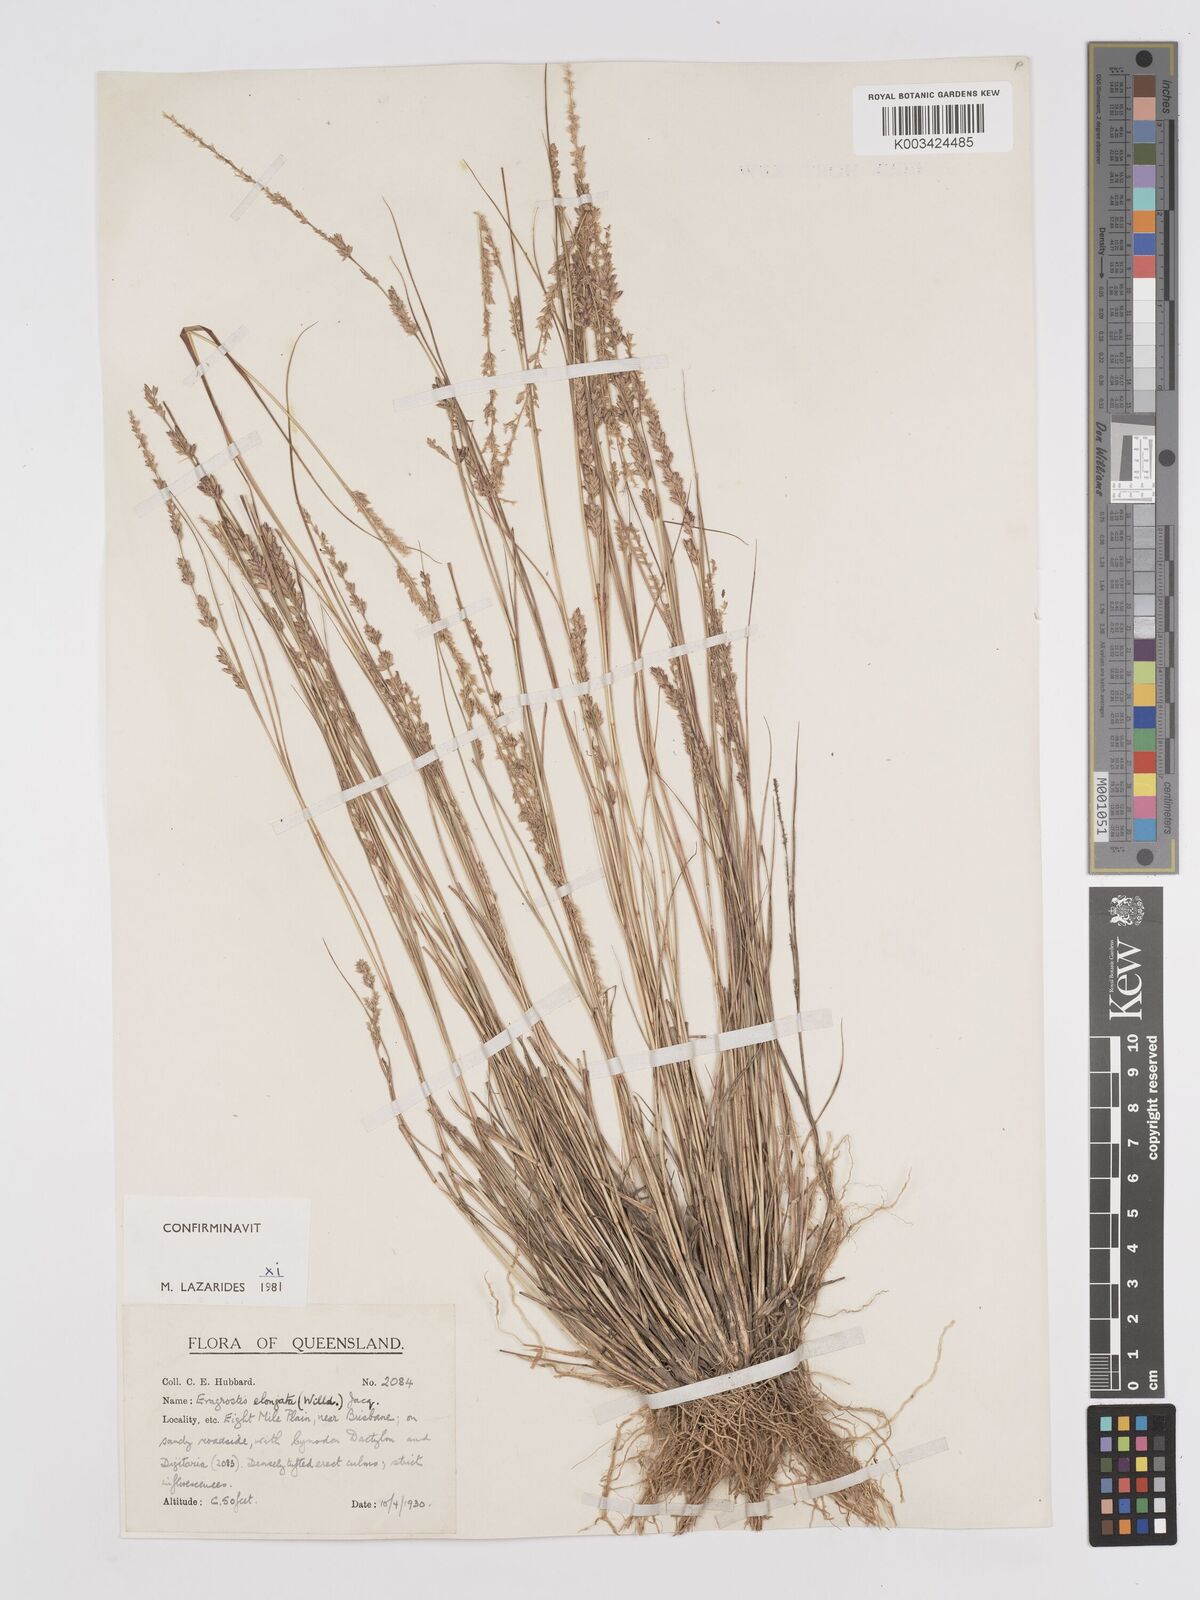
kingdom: Plantae
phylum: Tracheophyta
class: Liliopsida
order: Poales
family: Poaceae
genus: Eragrostis
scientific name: Eragrostis elongata
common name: Long lovegrass
